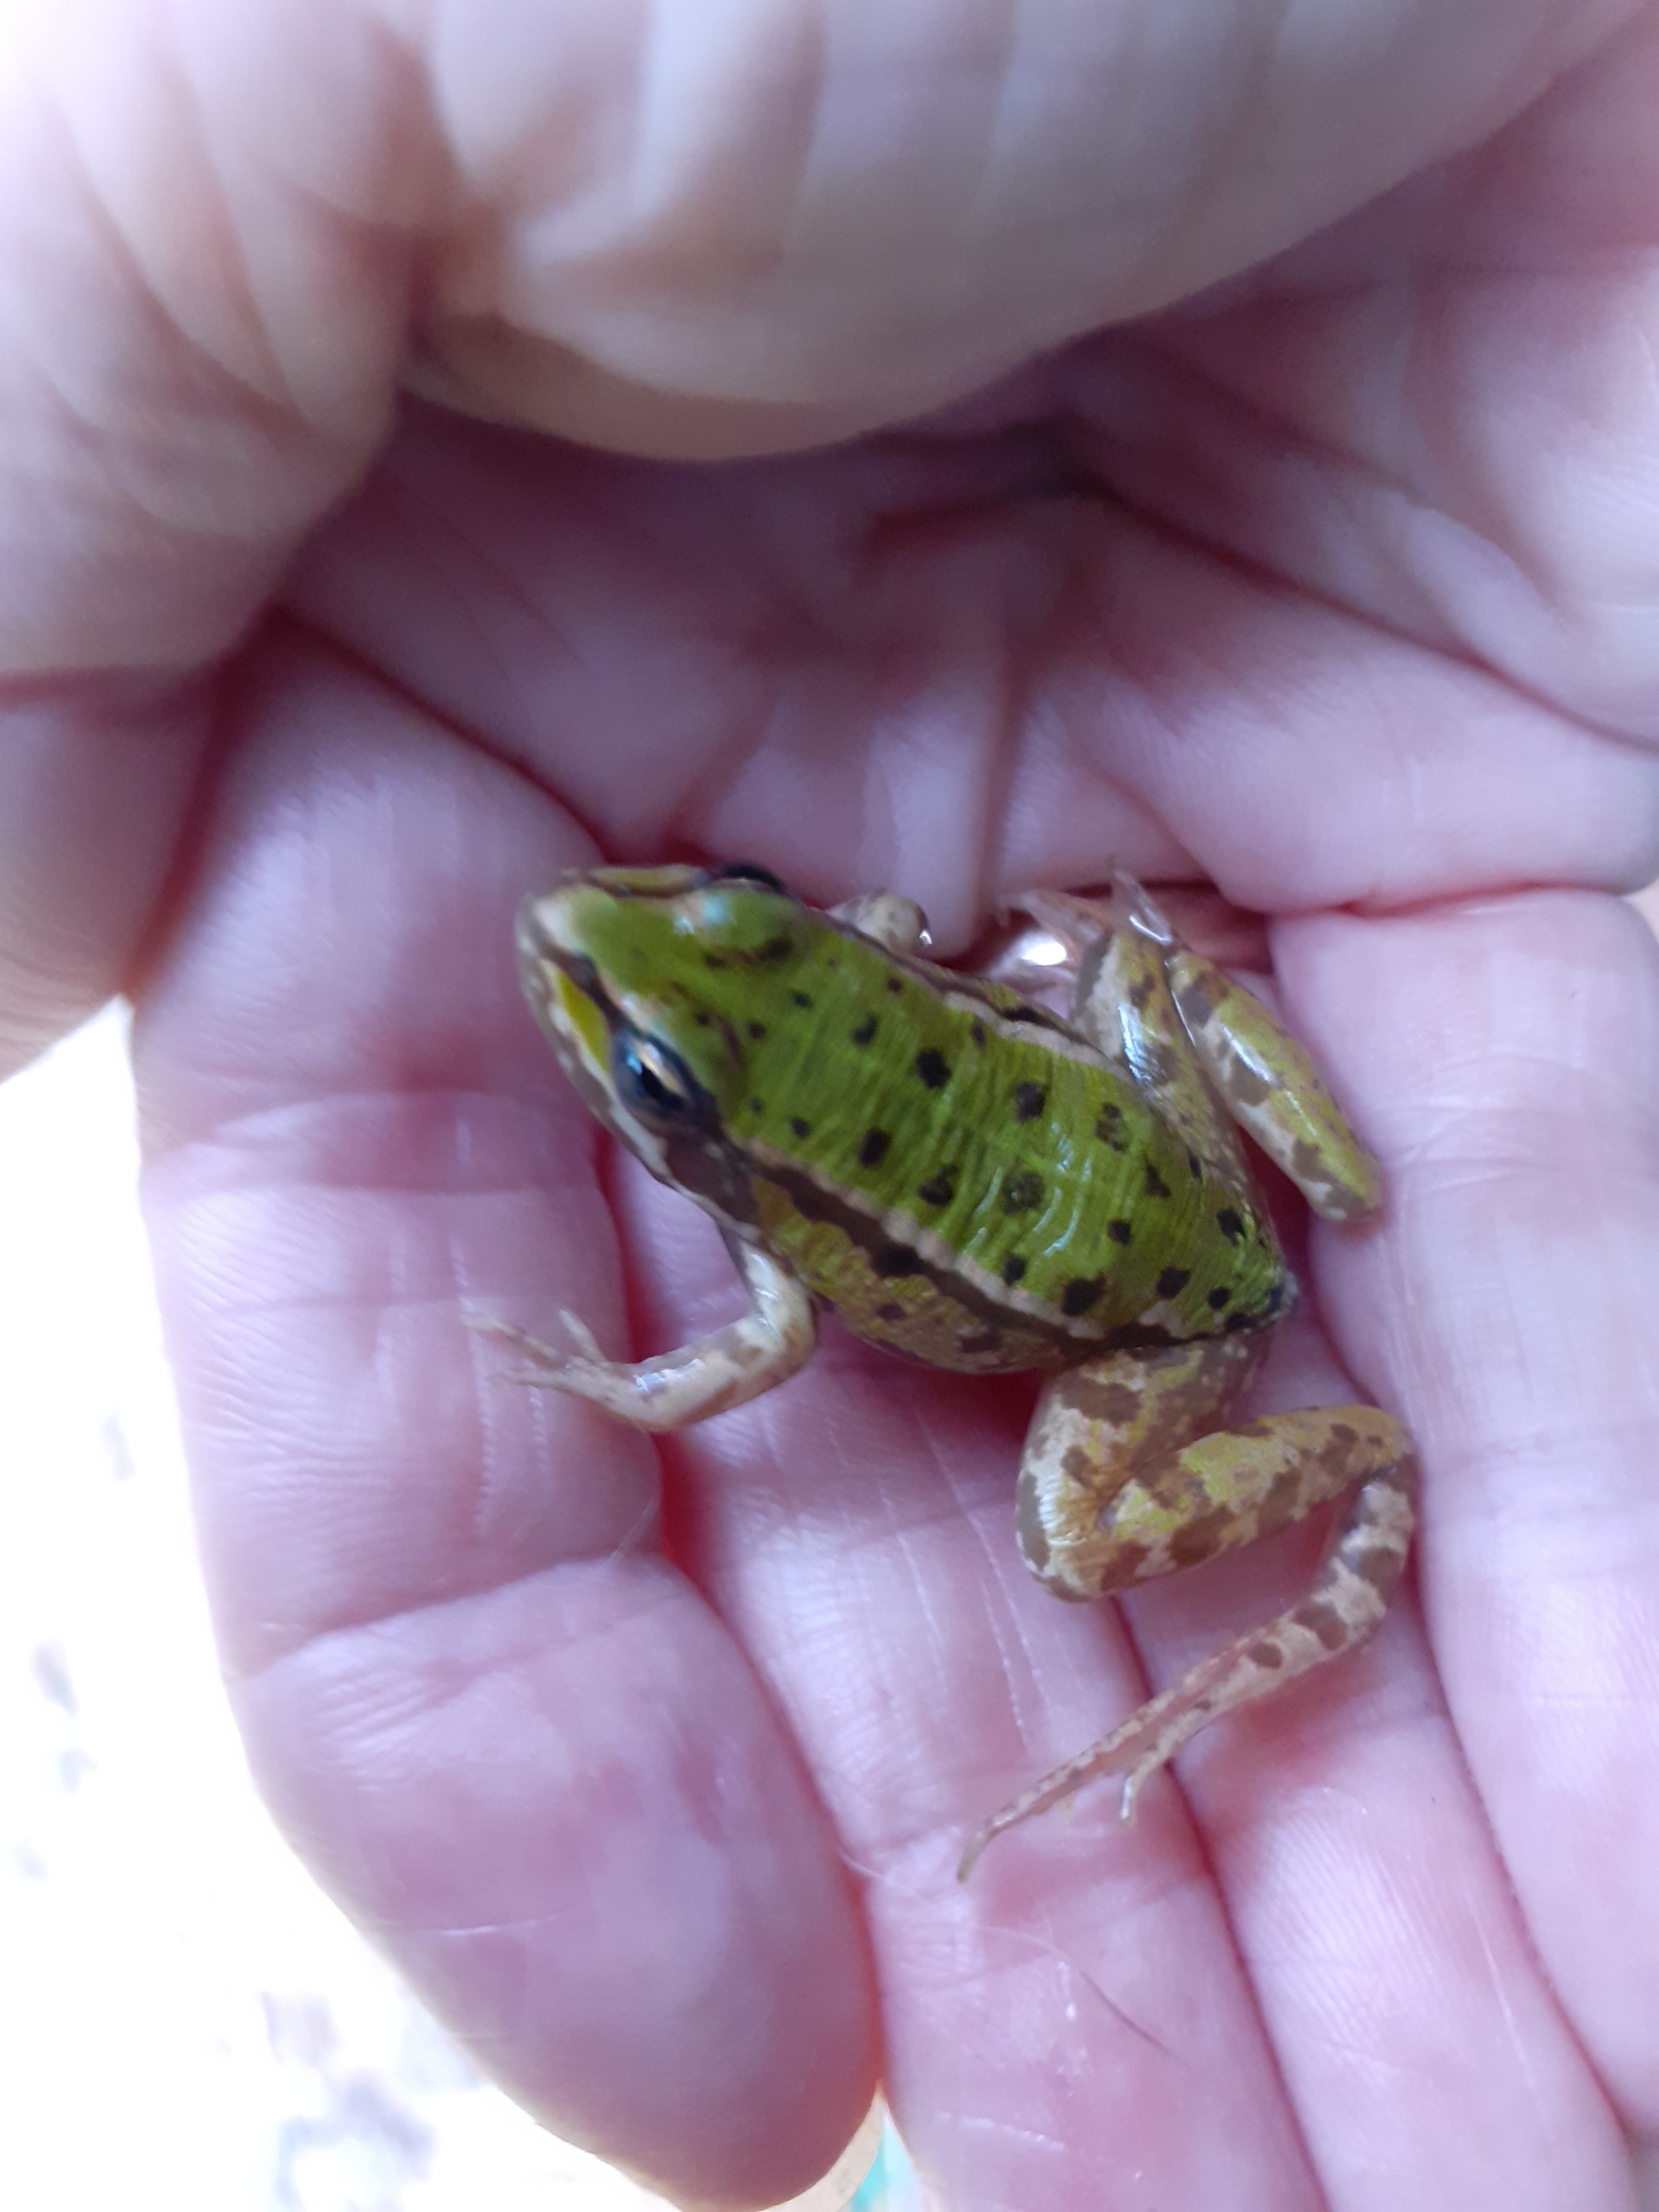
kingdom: Animalia
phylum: Chordata
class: Amphibia
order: Anura
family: Ranidae
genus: Pelophylax
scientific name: Pelophylax lessonae
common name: Grøn frø
